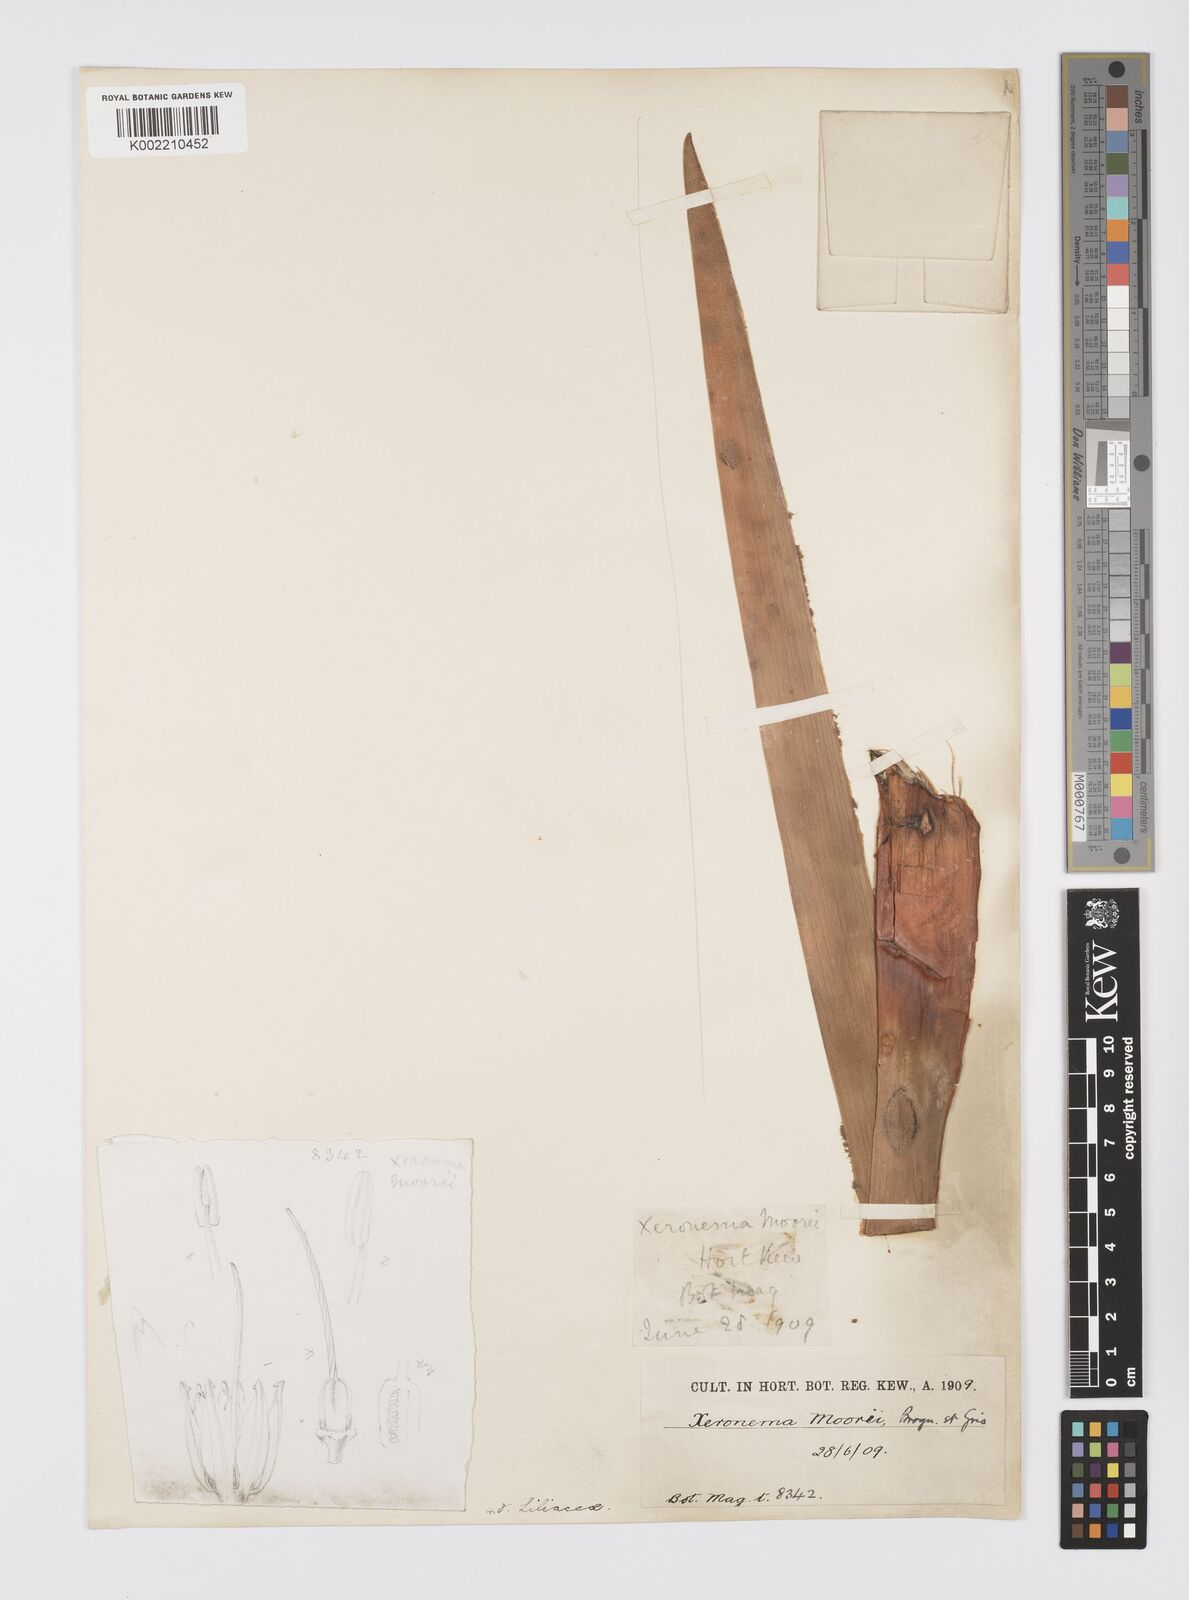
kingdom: Plantae
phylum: Tracheophyta
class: Liliopsida
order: Asparagales
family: Xeronemataceae
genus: Xeronema
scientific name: Xeronema moorei
